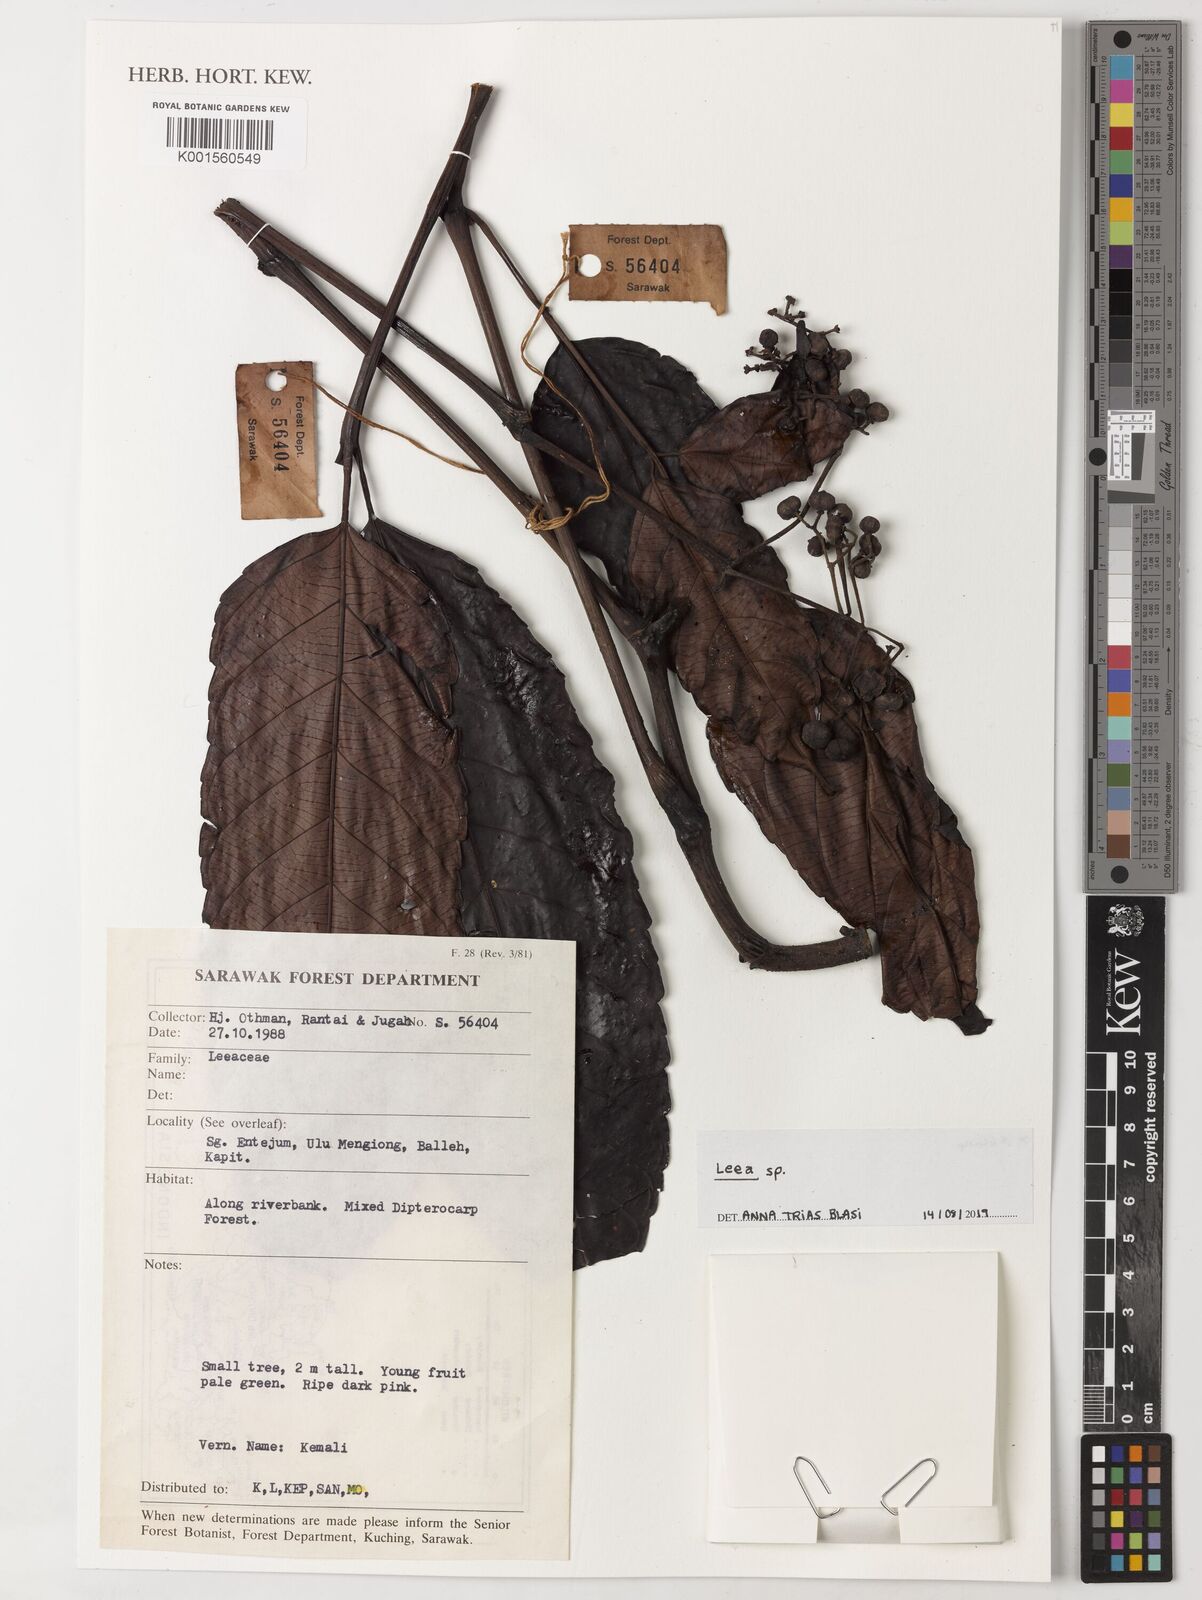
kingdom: Plantae
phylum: Tracheophyta
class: Magnoliopsida
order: Vitales
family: Vitaceae
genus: Leea
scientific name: Leea
